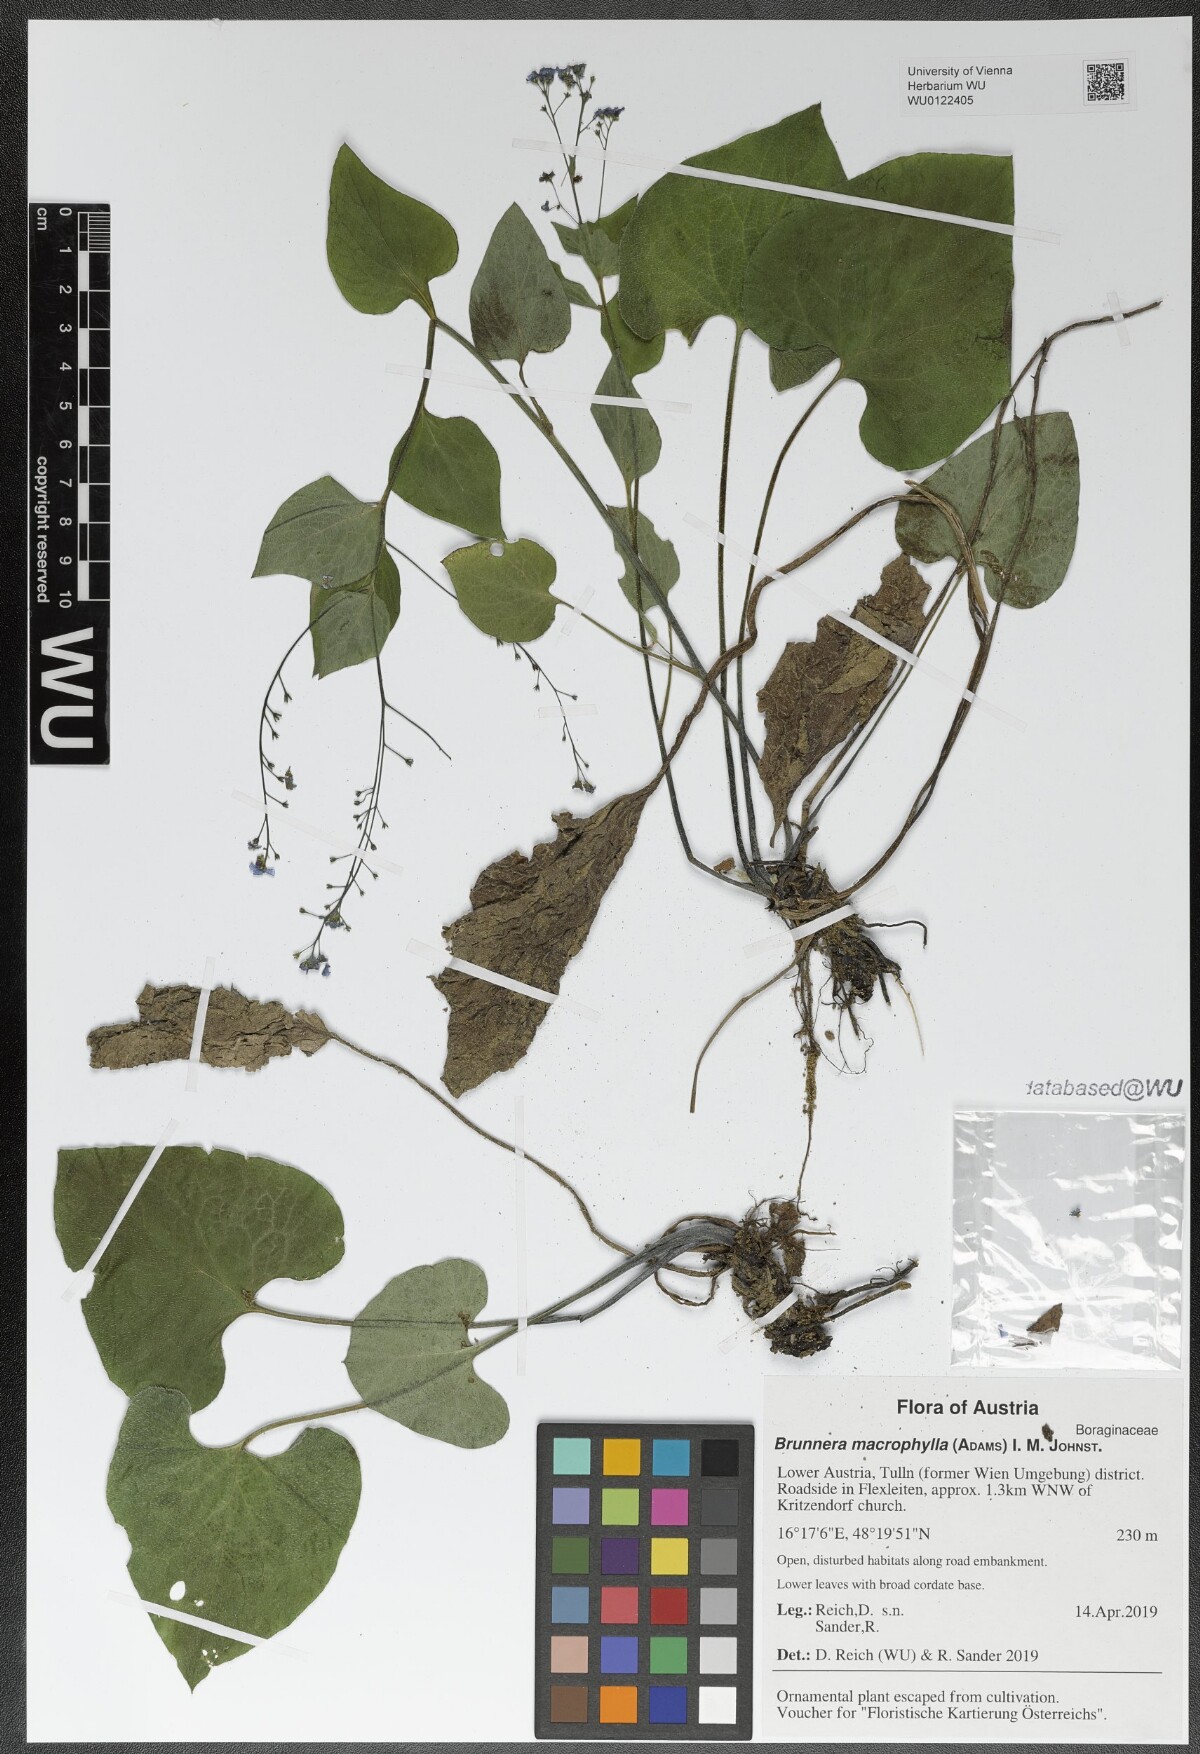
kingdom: Plantae
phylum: Tracheophyta
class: Magnoliopsida
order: Boraginales
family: Boraginaceae
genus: Brunnera
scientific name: Brunnera macrophylla
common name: Great forget-me-not
